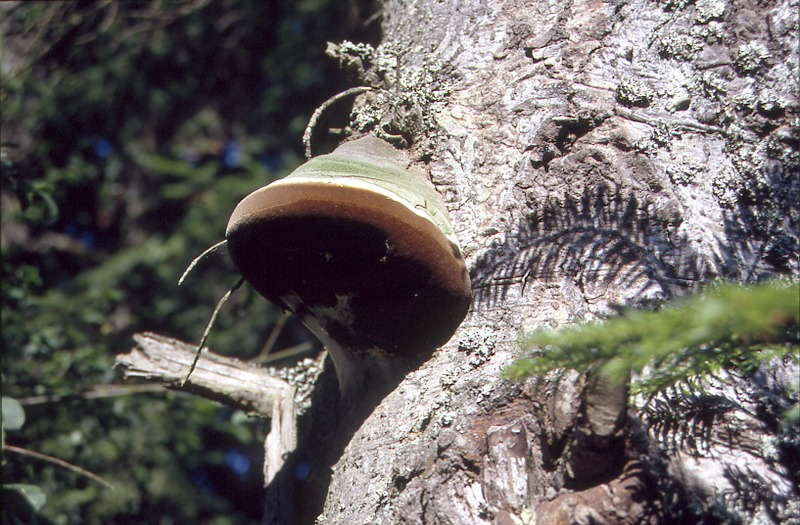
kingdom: Fungi
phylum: Basidiomycota
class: Agaricomycetes
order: Hymenochaetales
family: Hymenochaetaceae
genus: Phellinus
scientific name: Phellinus hartigii
